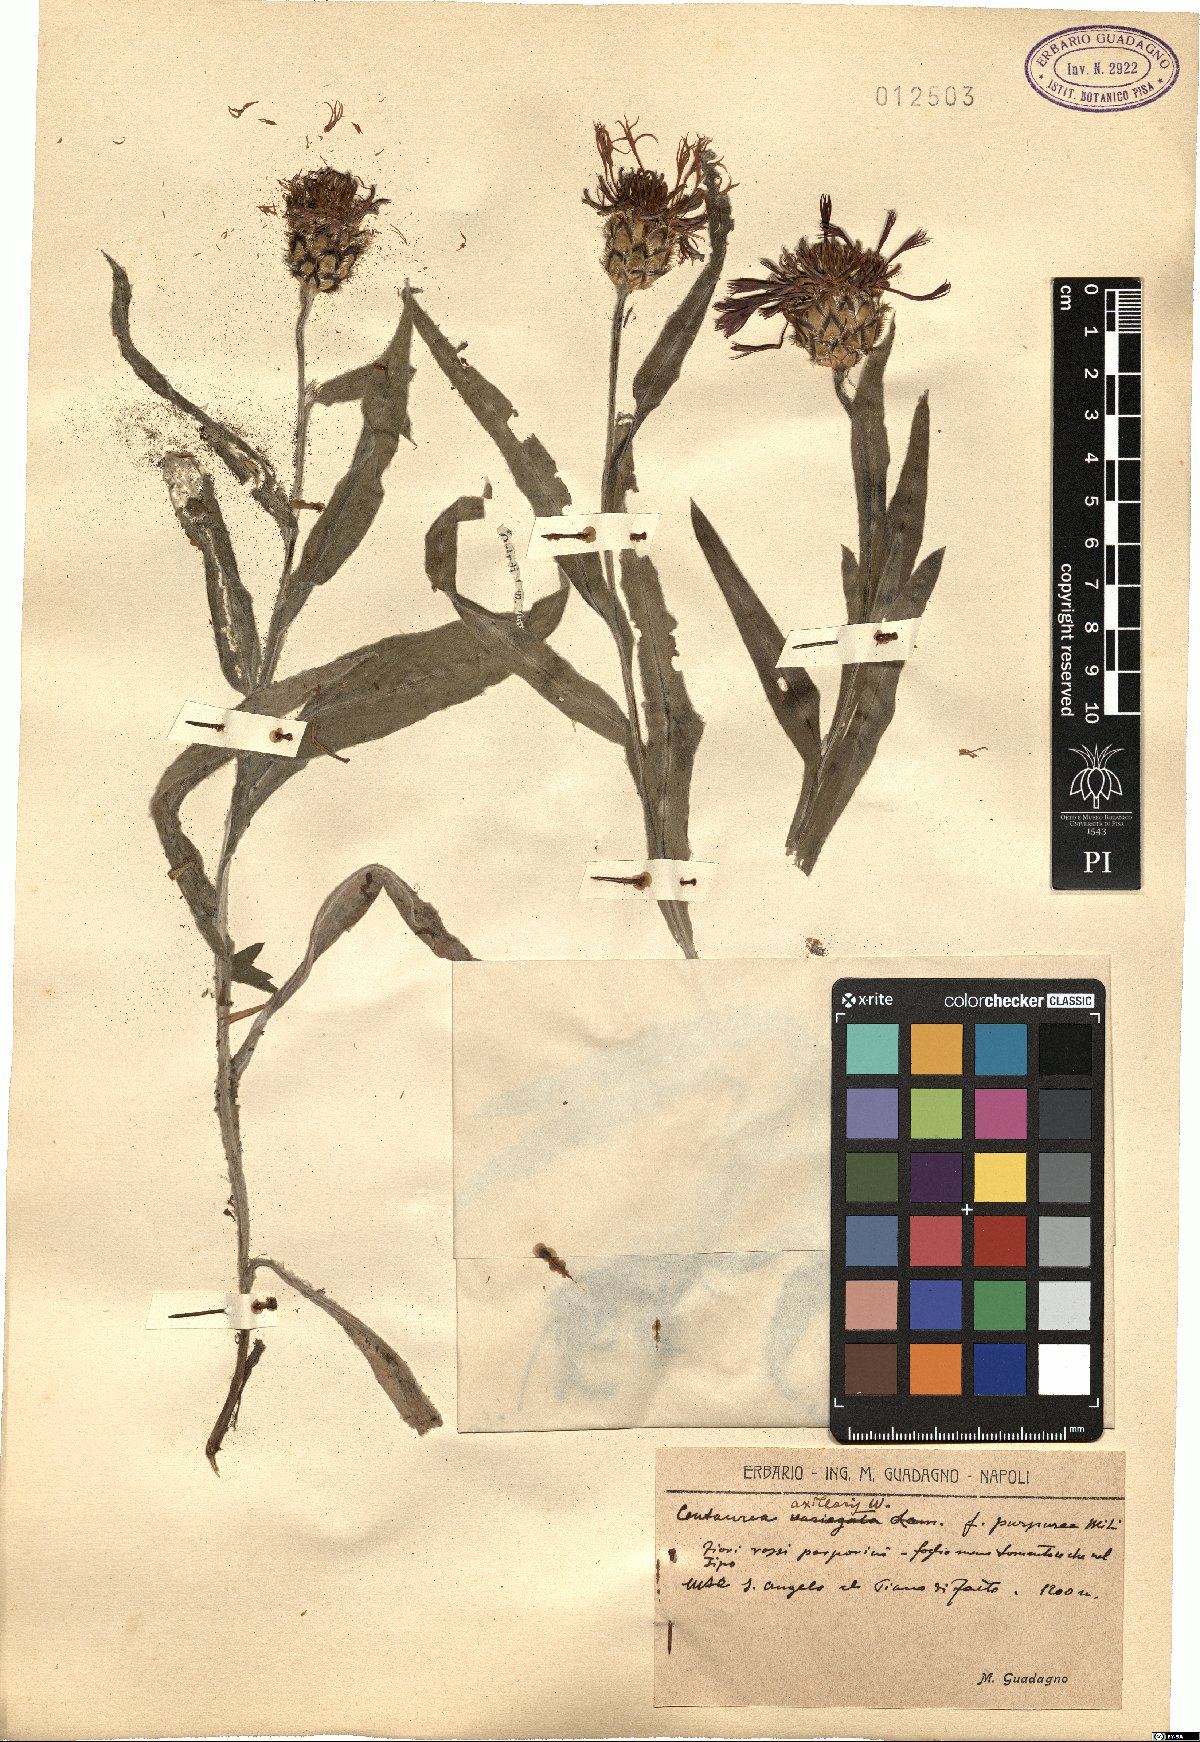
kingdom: Plantae
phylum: Tracheophyta
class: Magnoliopsida
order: Asterales
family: Asteraceae
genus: Centaurea
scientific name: Centaurea triumfettii
